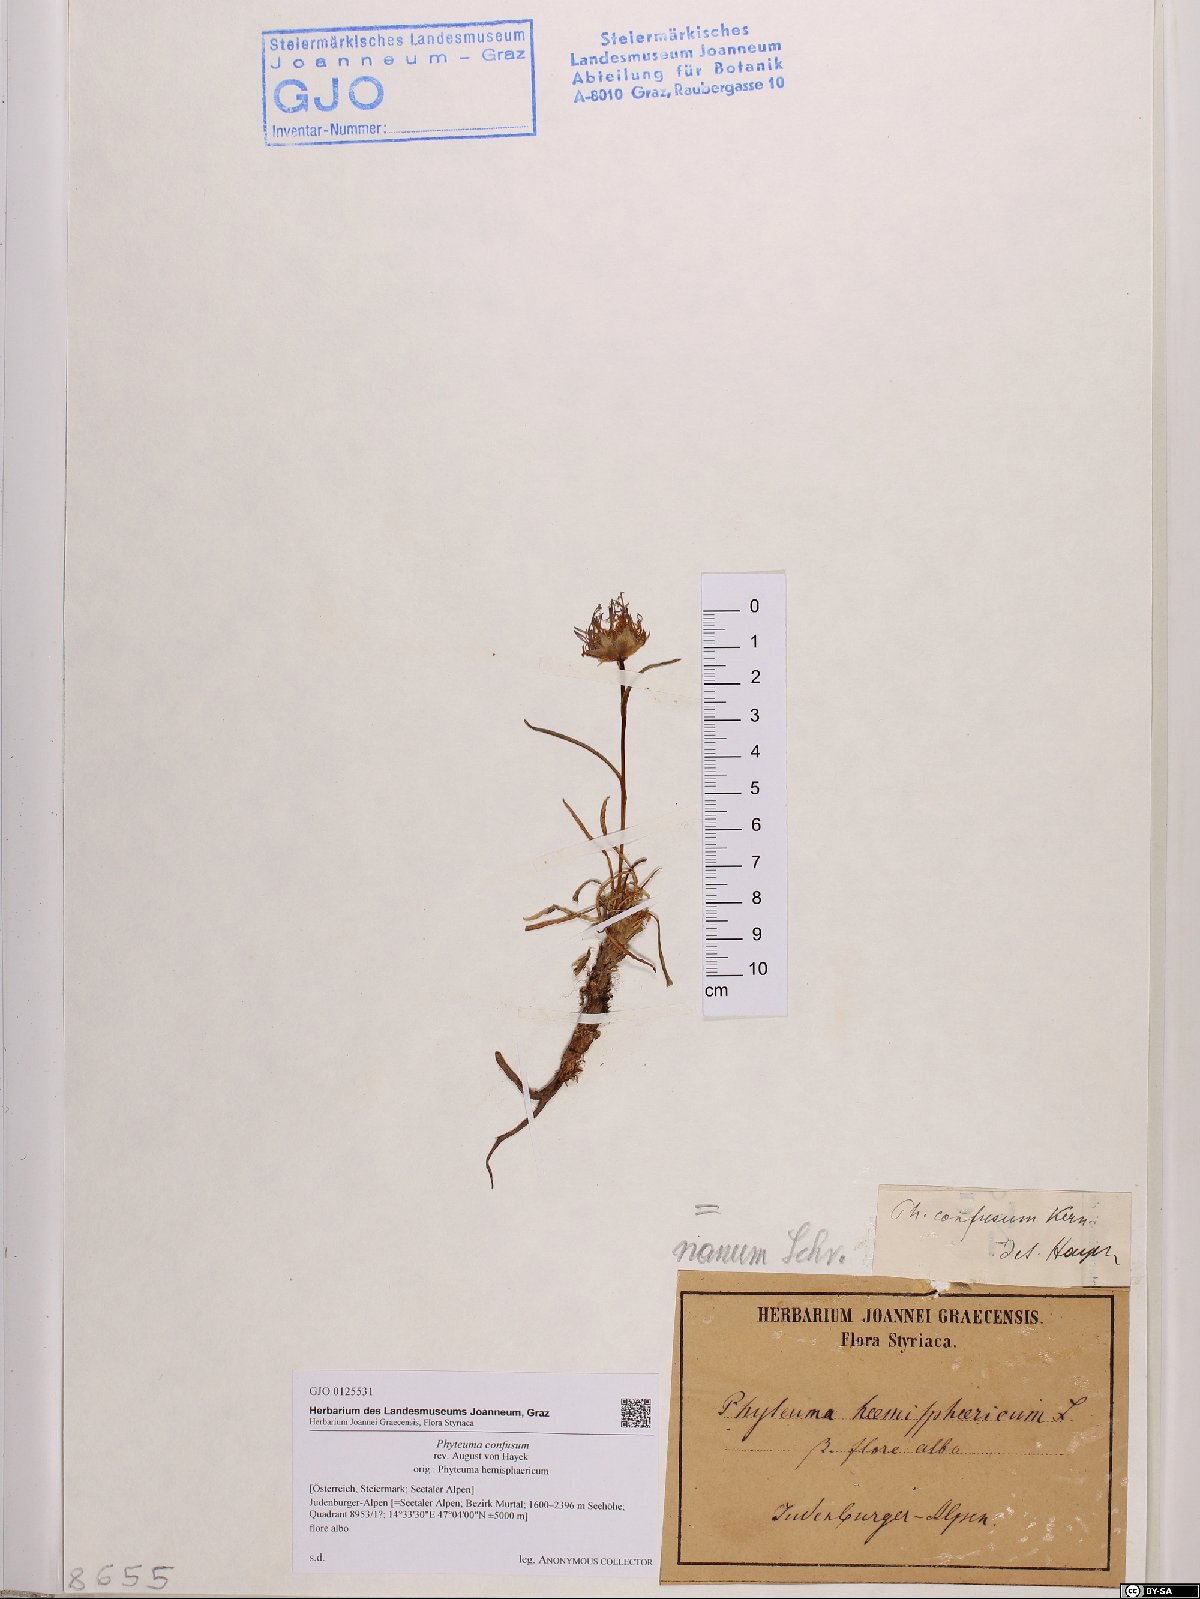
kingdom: Plantae
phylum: Tracheophyta
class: Magnoliopsida
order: Asterales
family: Campanulaceae
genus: Phyteuma
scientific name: Phyteuma confusum
